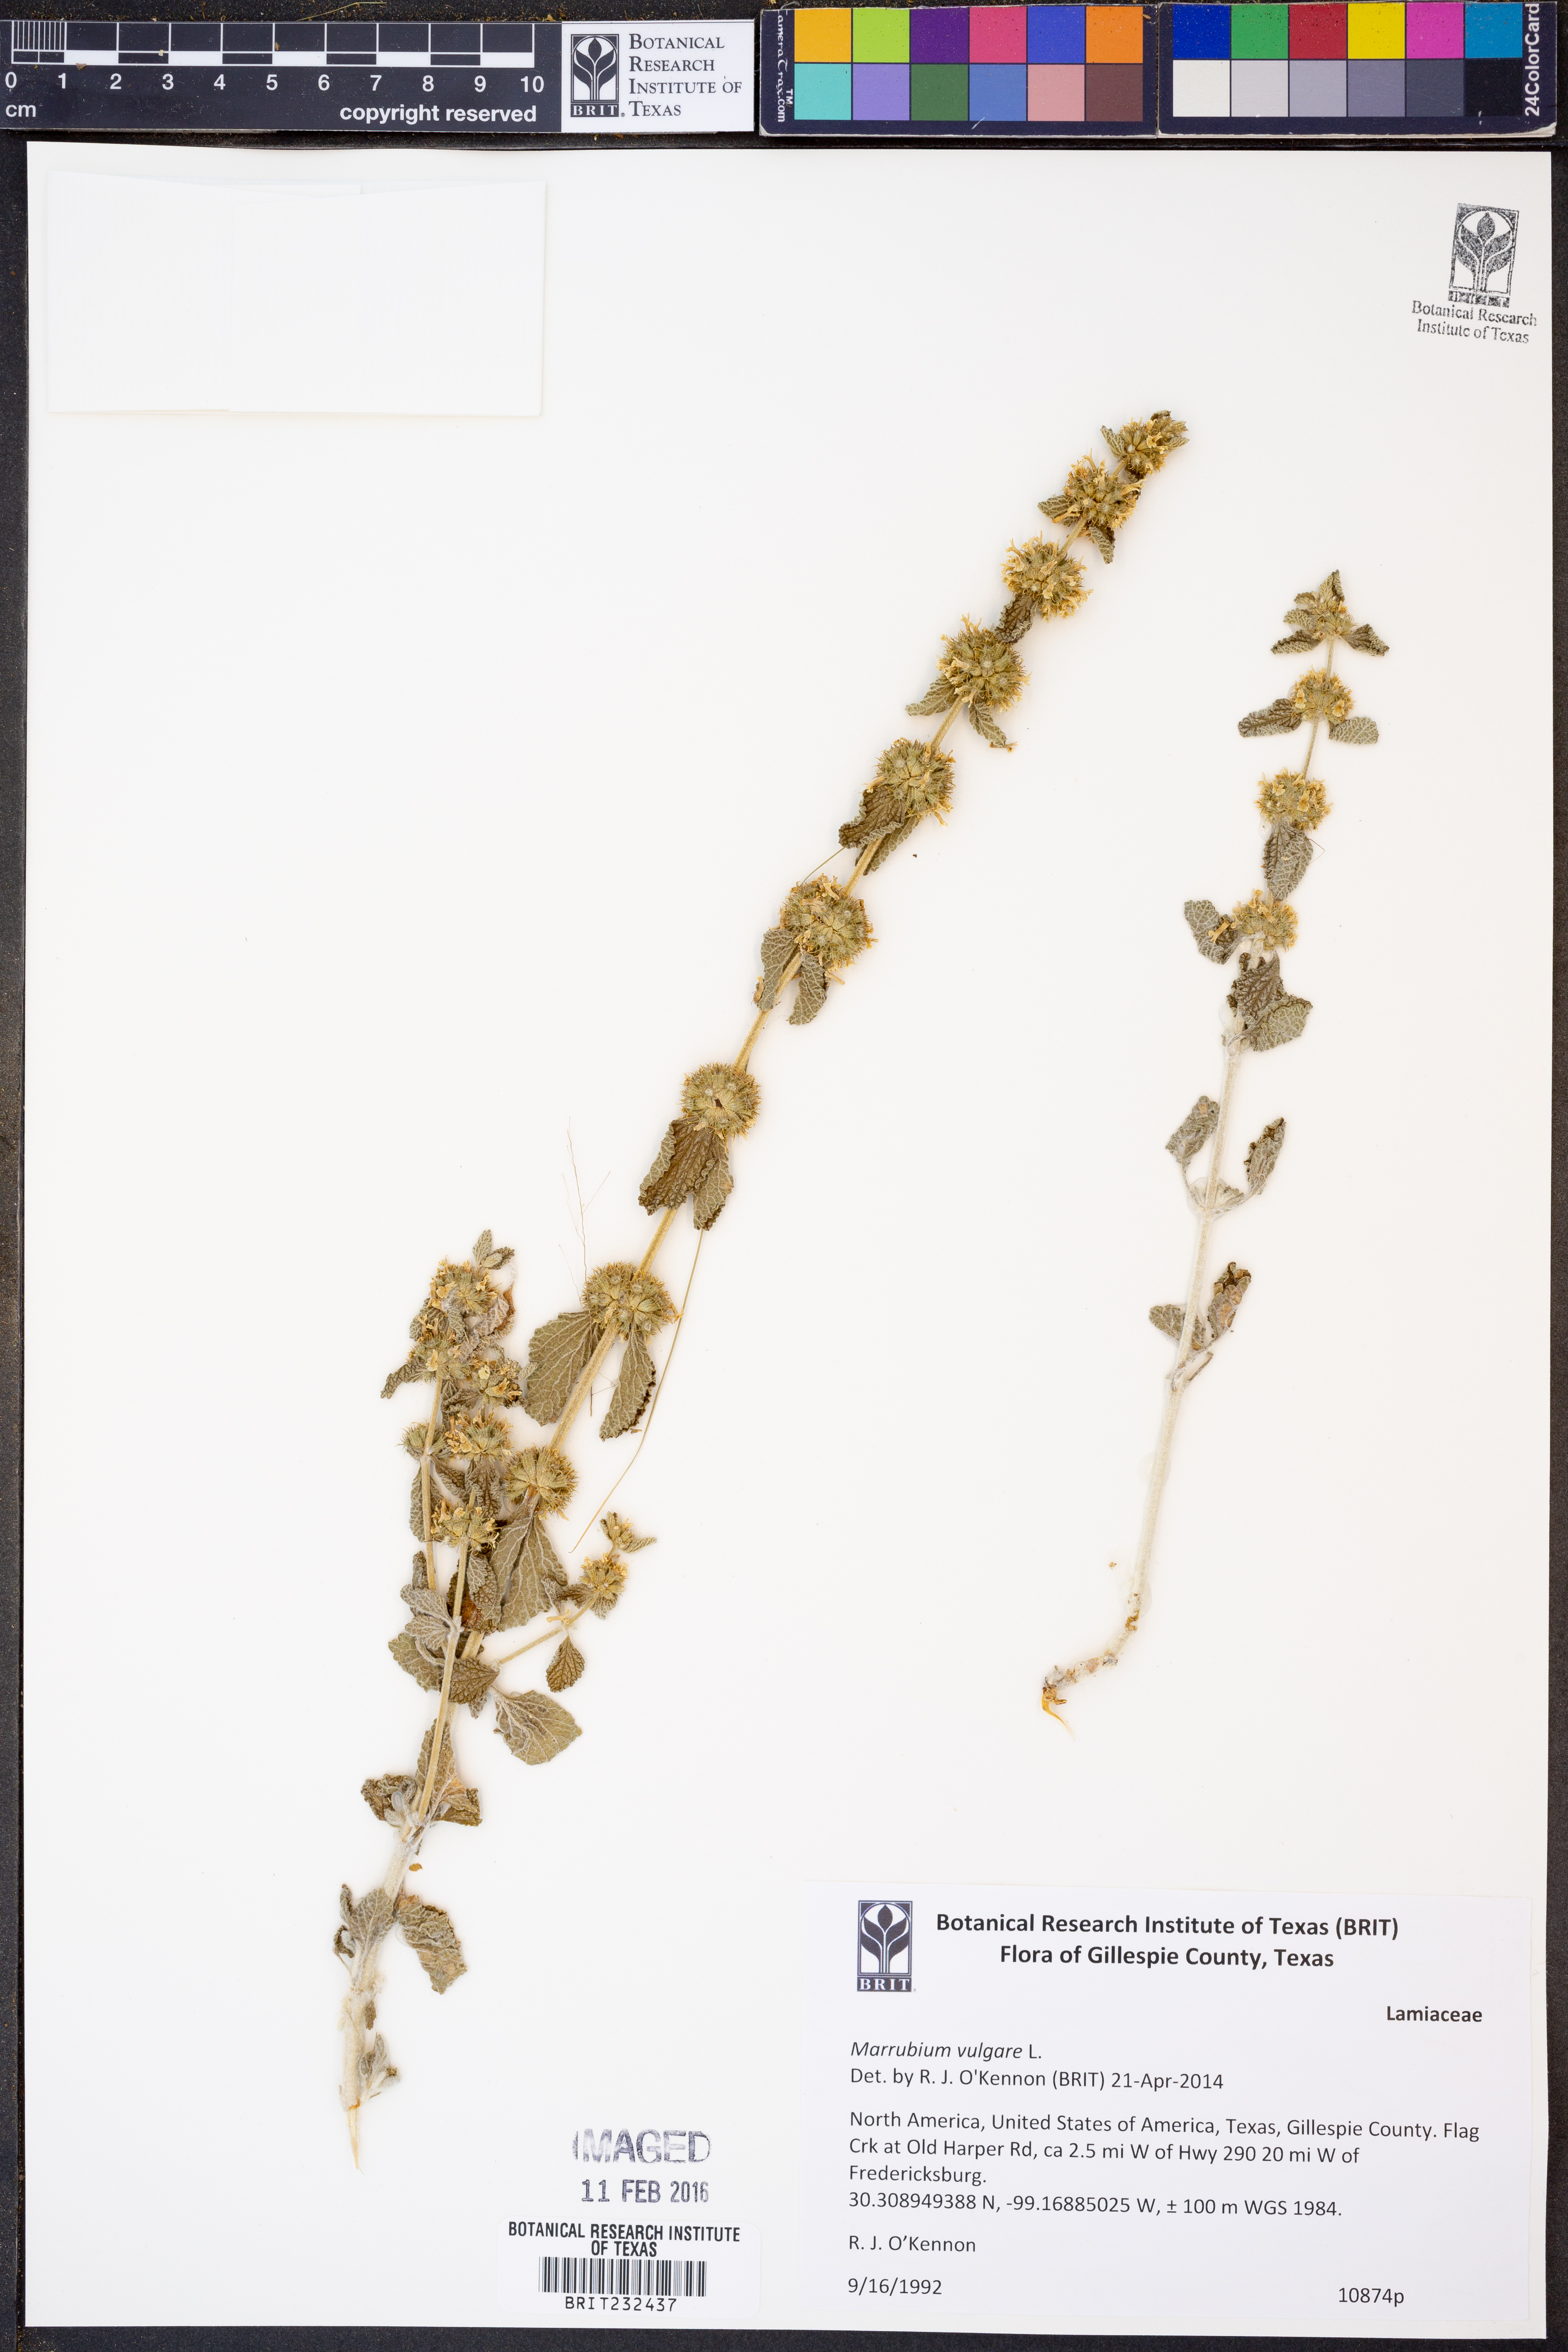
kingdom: Plantae
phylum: Tracheophyta
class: Magnoliopsida
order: Lamiales
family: Lamiaceae
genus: Marrubium
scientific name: Marrubium vulgare
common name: Horehound
